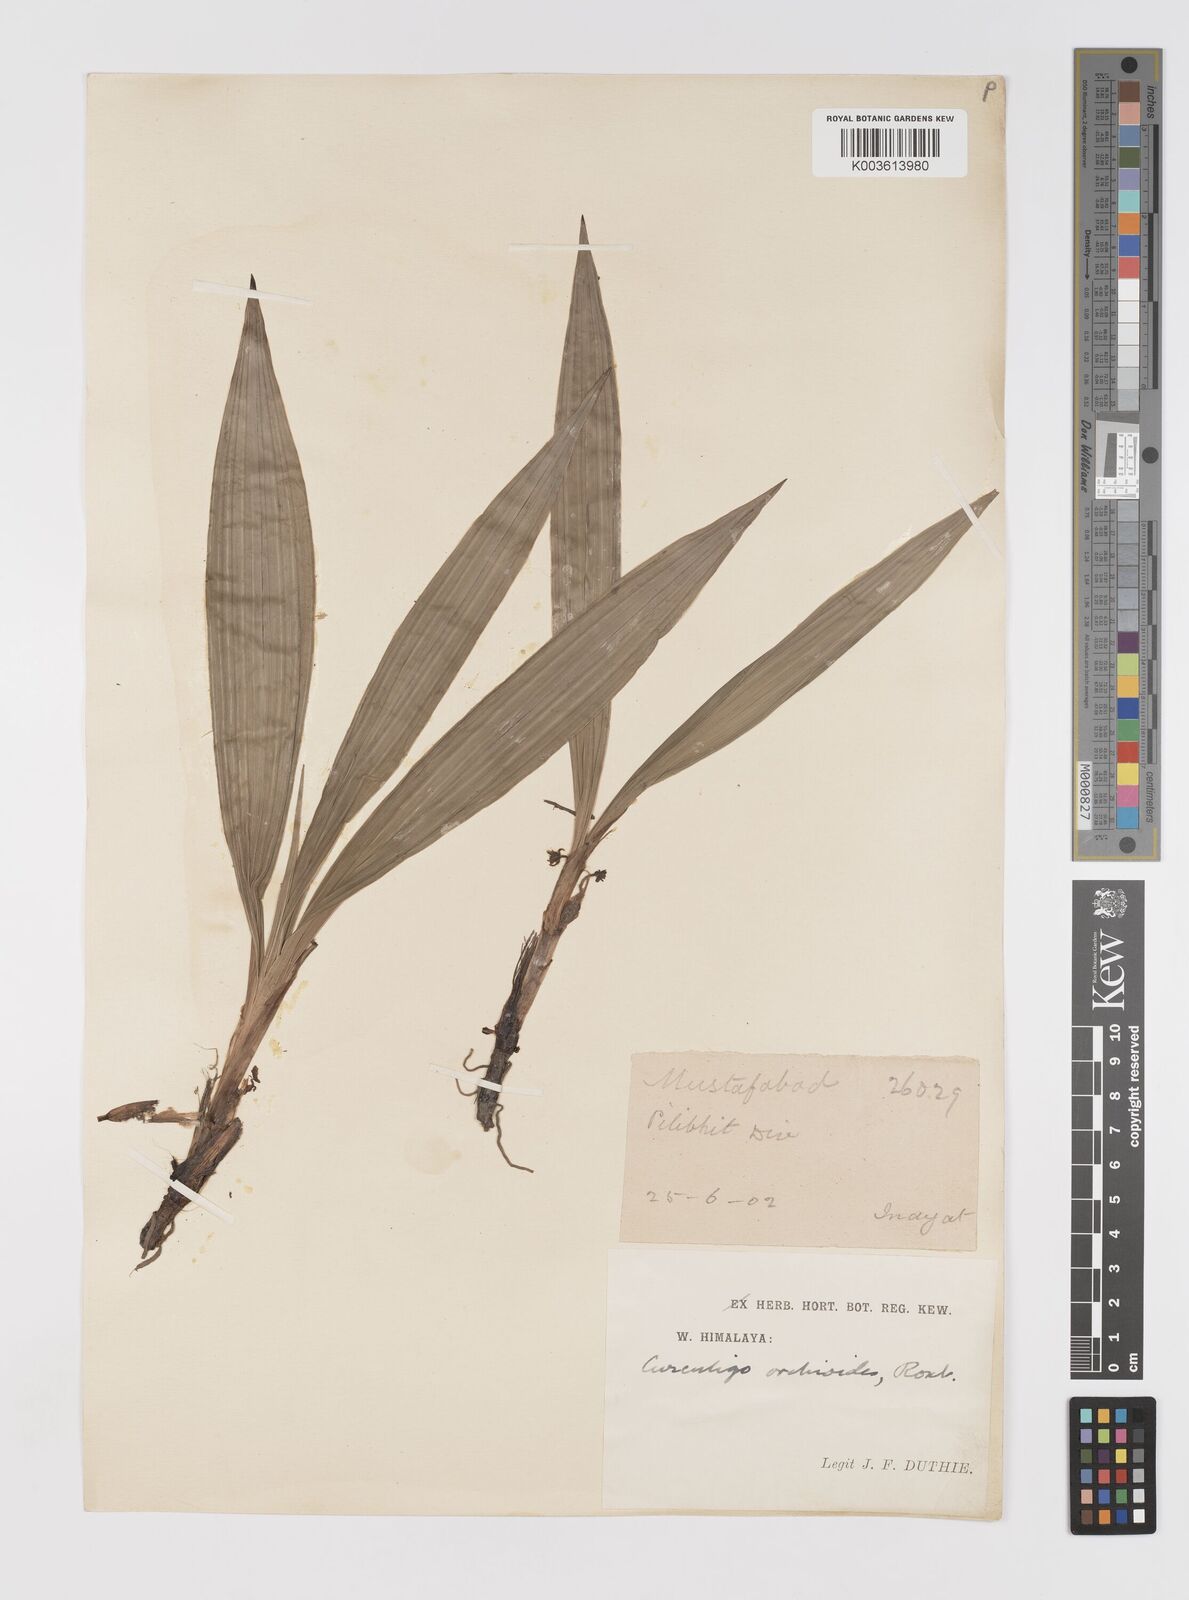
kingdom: Plantae
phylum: Tracheophyta
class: Liliopsida
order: Asparagales
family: Hypoxidaceae
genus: Curculigo
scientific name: Curculigo orchioides
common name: Golden eye-grass
